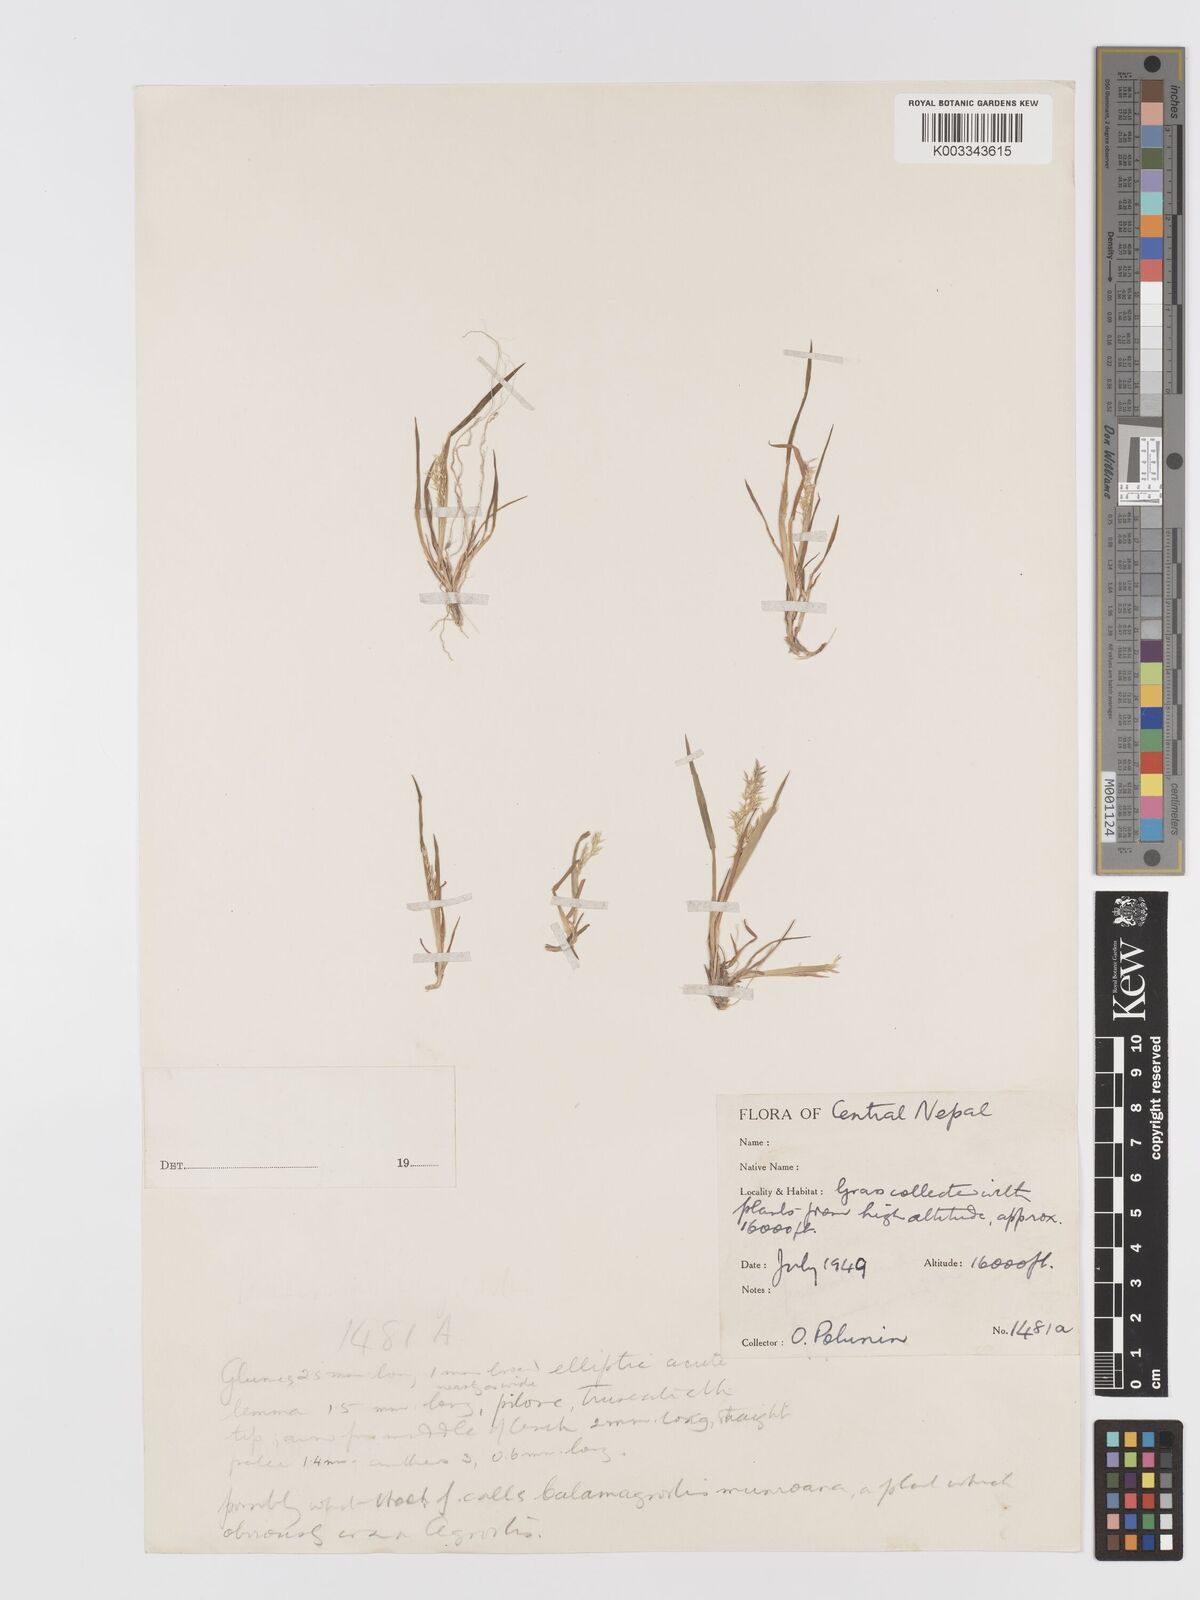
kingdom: Plantae
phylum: Tracheophyta
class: Liliopsida
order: Poales
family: Poaceae
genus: Agrostis
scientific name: Agrostis munroana
